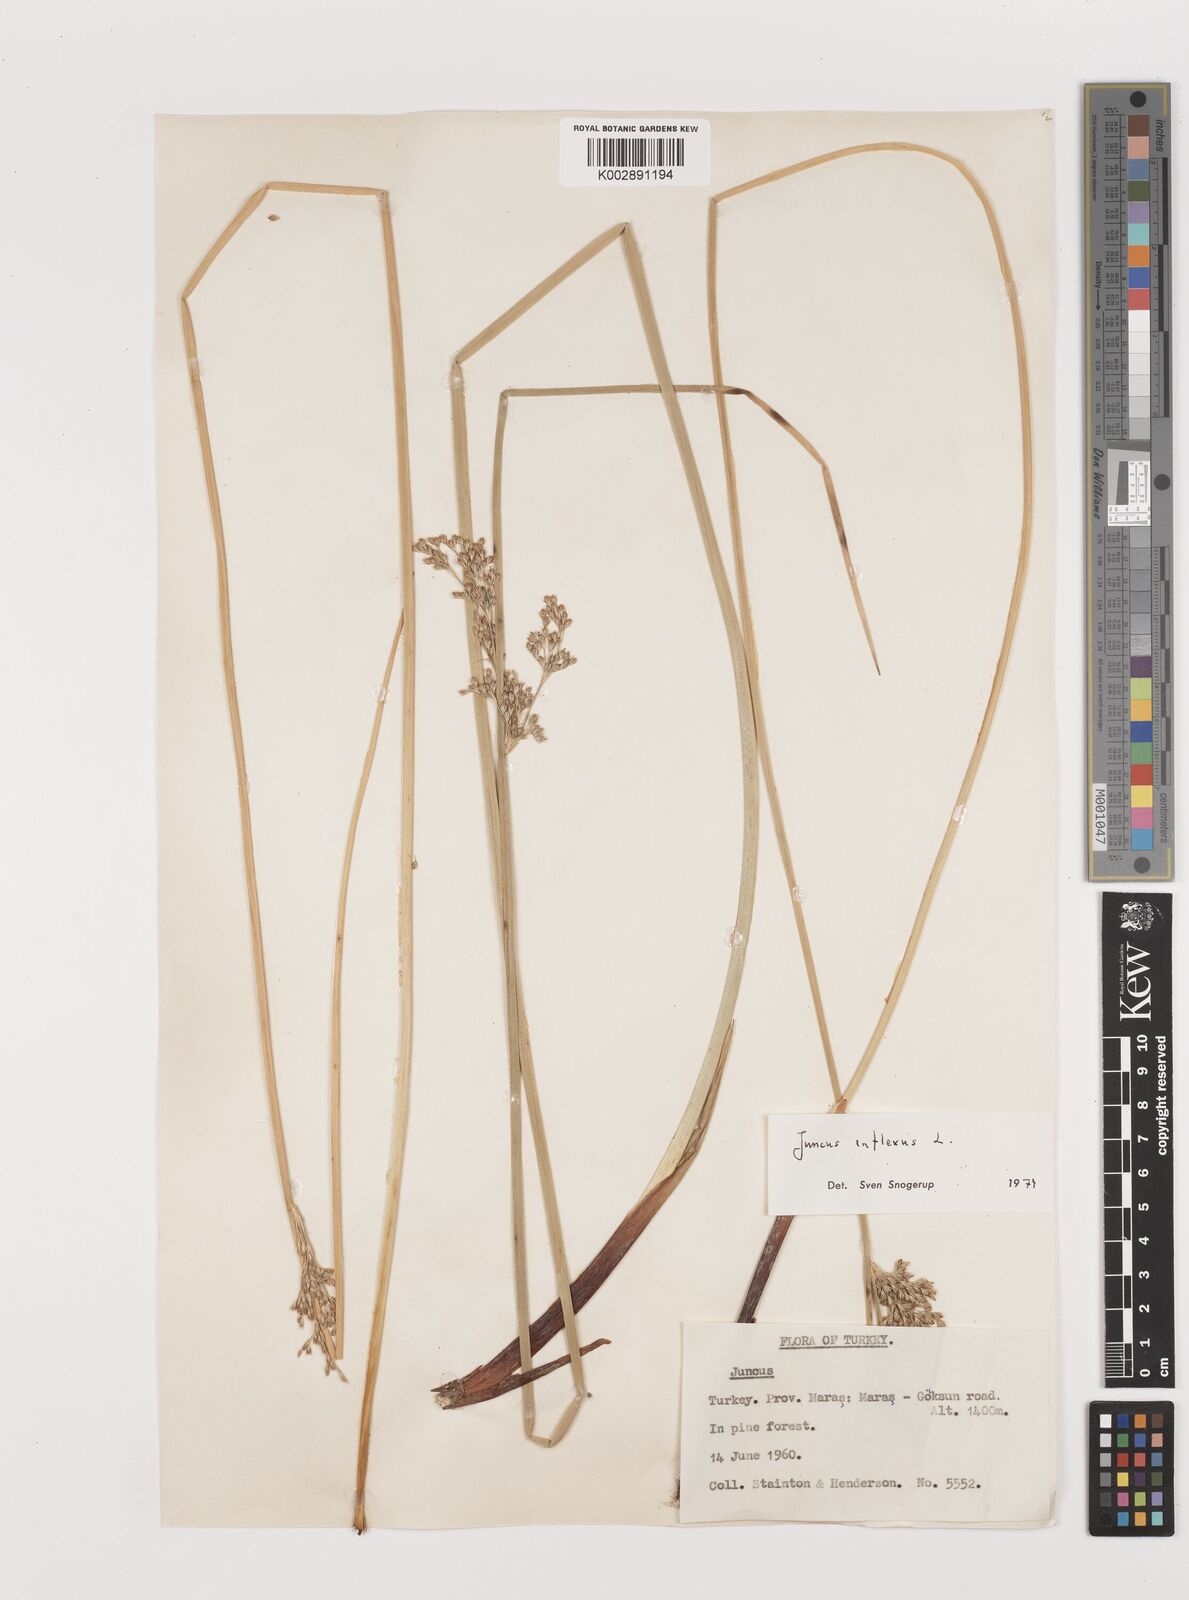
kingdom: Plantae
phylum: Tracheophyta
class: Liliopsida
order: Poales
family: Juncaceae
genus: Juncus
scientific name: Juncus inflexus
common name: Hard rush
